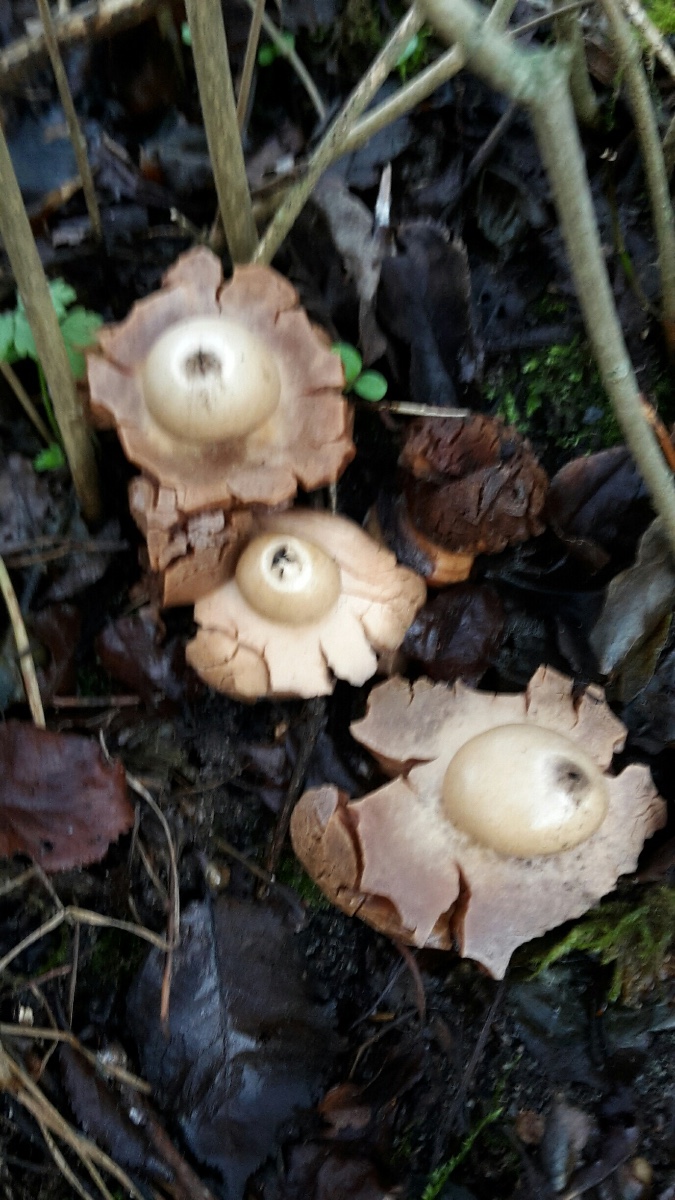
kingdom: Fungi
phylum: Basidiomycota
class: Agaricomycetes
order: Geastrales
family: Geastraceae
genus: Geastrum
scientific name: Geastrum michelianum
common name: kødet stjernebold
